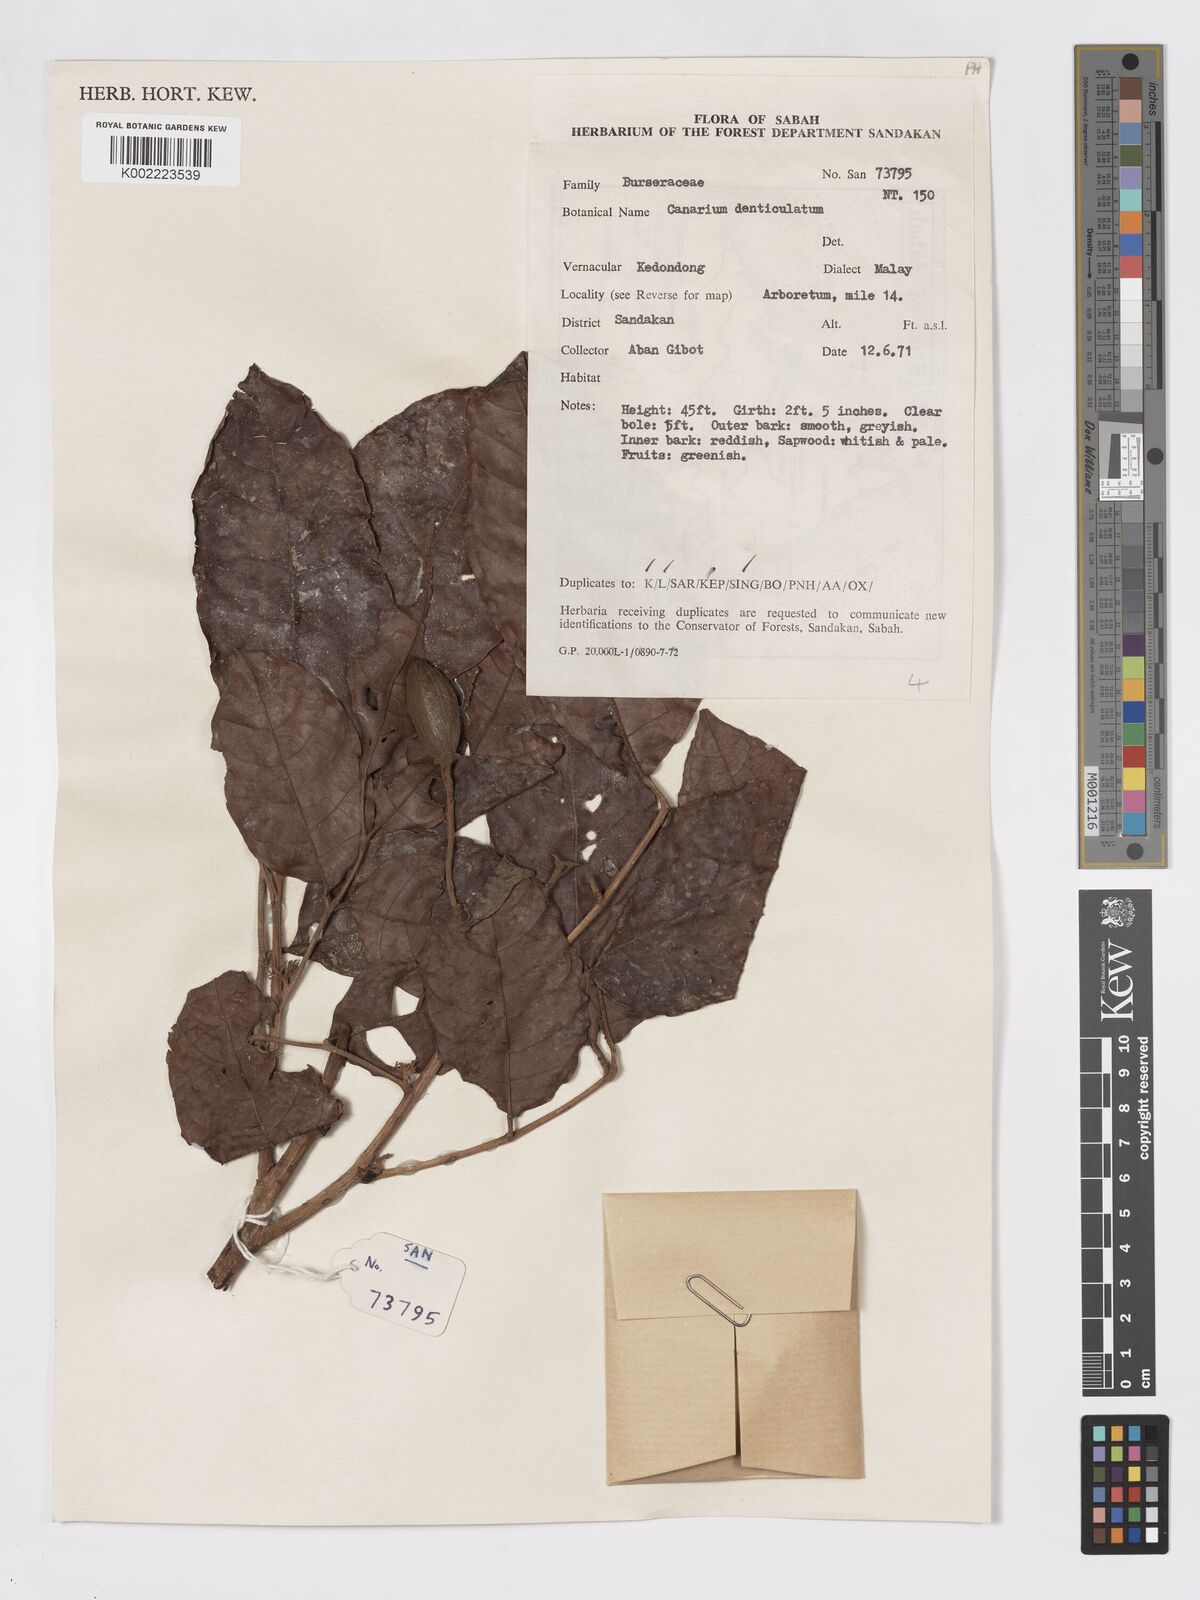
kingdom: Plantae
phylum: Tracheophyta
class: Magnoliopsida
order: Sapindales
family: Burseraceae
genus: Canarium
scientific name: Canarium denticulatum
